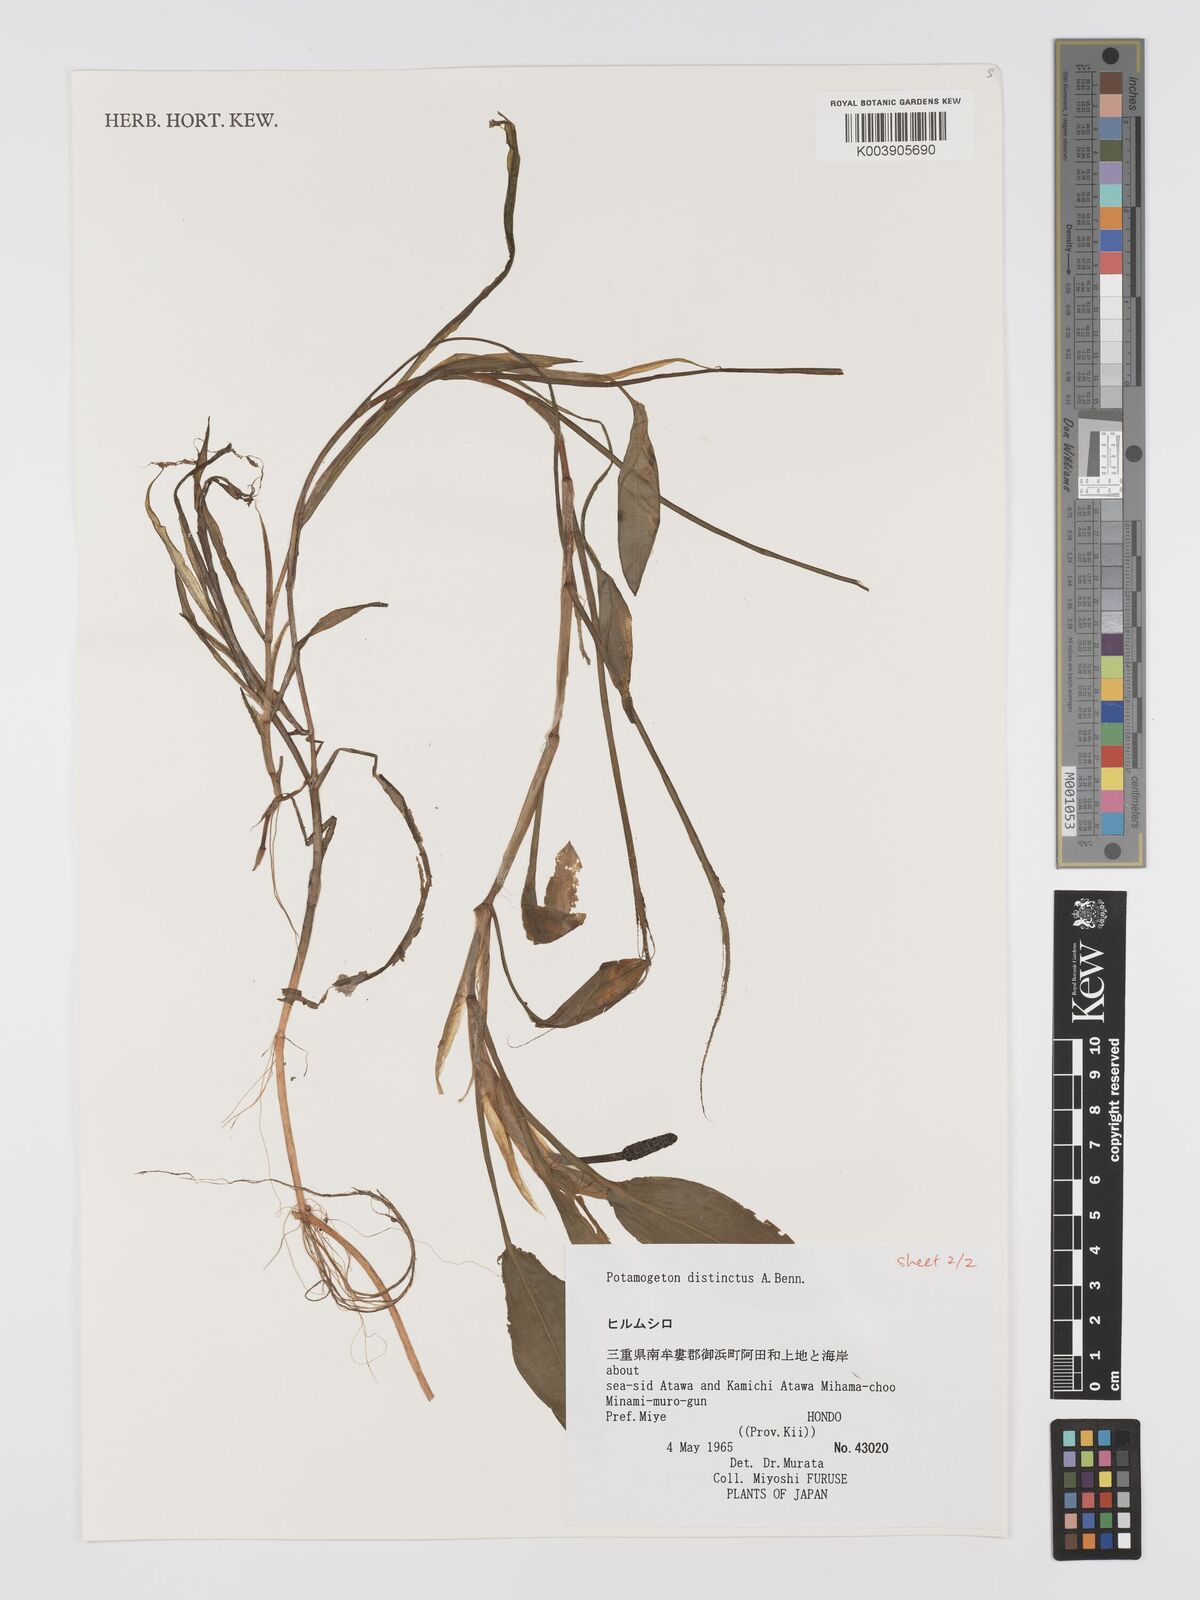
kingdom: Plantae
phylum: Tracheophyta
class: Liliopsida
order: Alismatales
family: Potamogetonaceae
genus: Potamogeton
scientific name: Potamogeton distinctus
